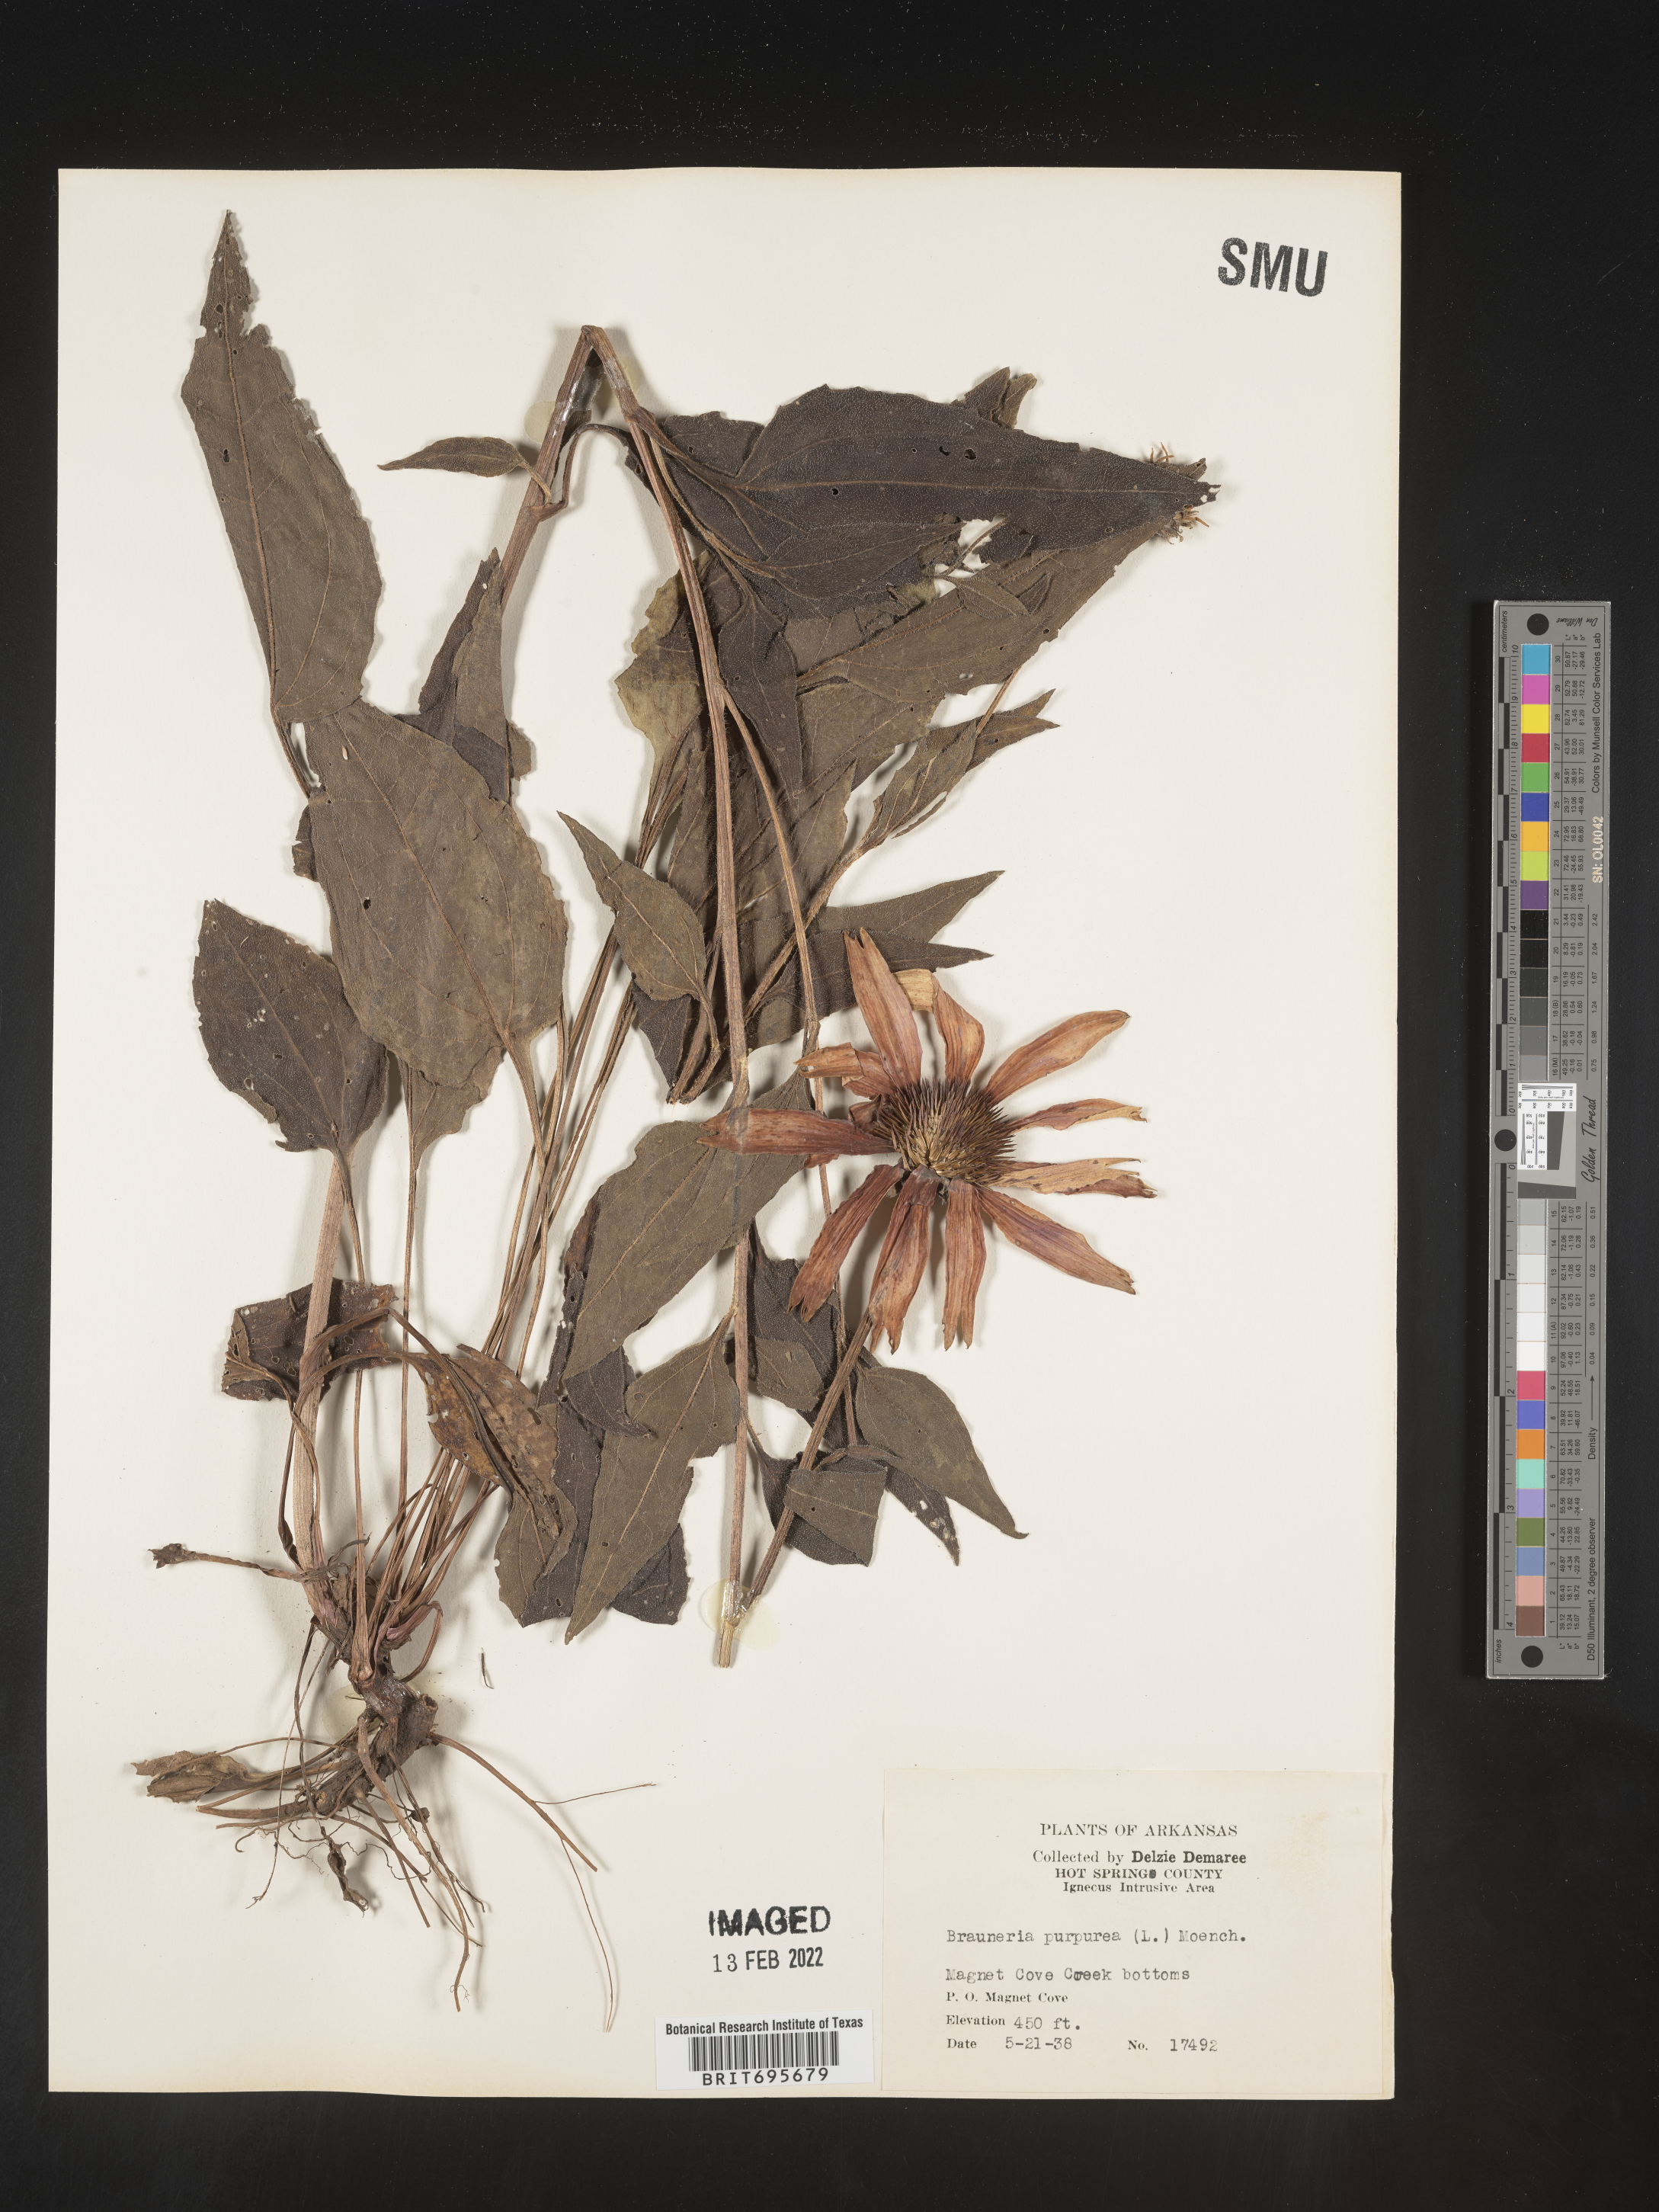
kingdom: Plantae
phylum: Tracheophyta
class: Magnoliopsida
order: Asterales
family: Asteraceae
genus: Echinacea
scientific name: Echinacea purpurea
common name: Broad-leaved purple coneflower
